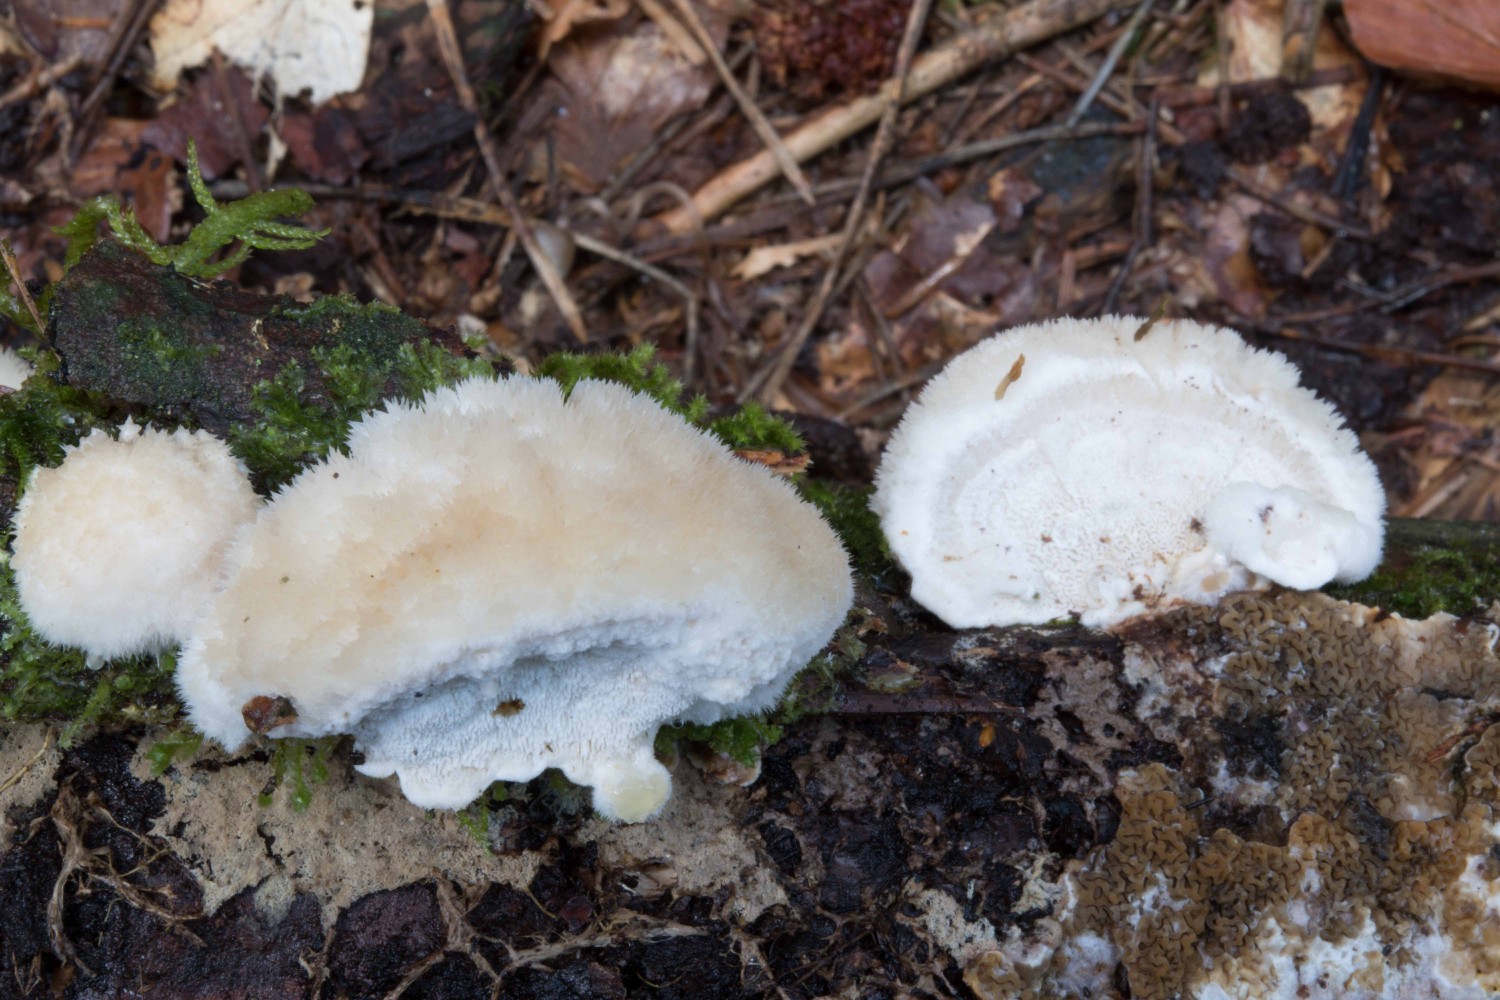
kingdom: Fungi
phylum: Basidiomycota
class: Agaricomycetes
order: Polyporales
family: Dacryobolaceae
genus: Postia
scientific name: Postia ptychogaster
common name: støvende kødporesvamp
